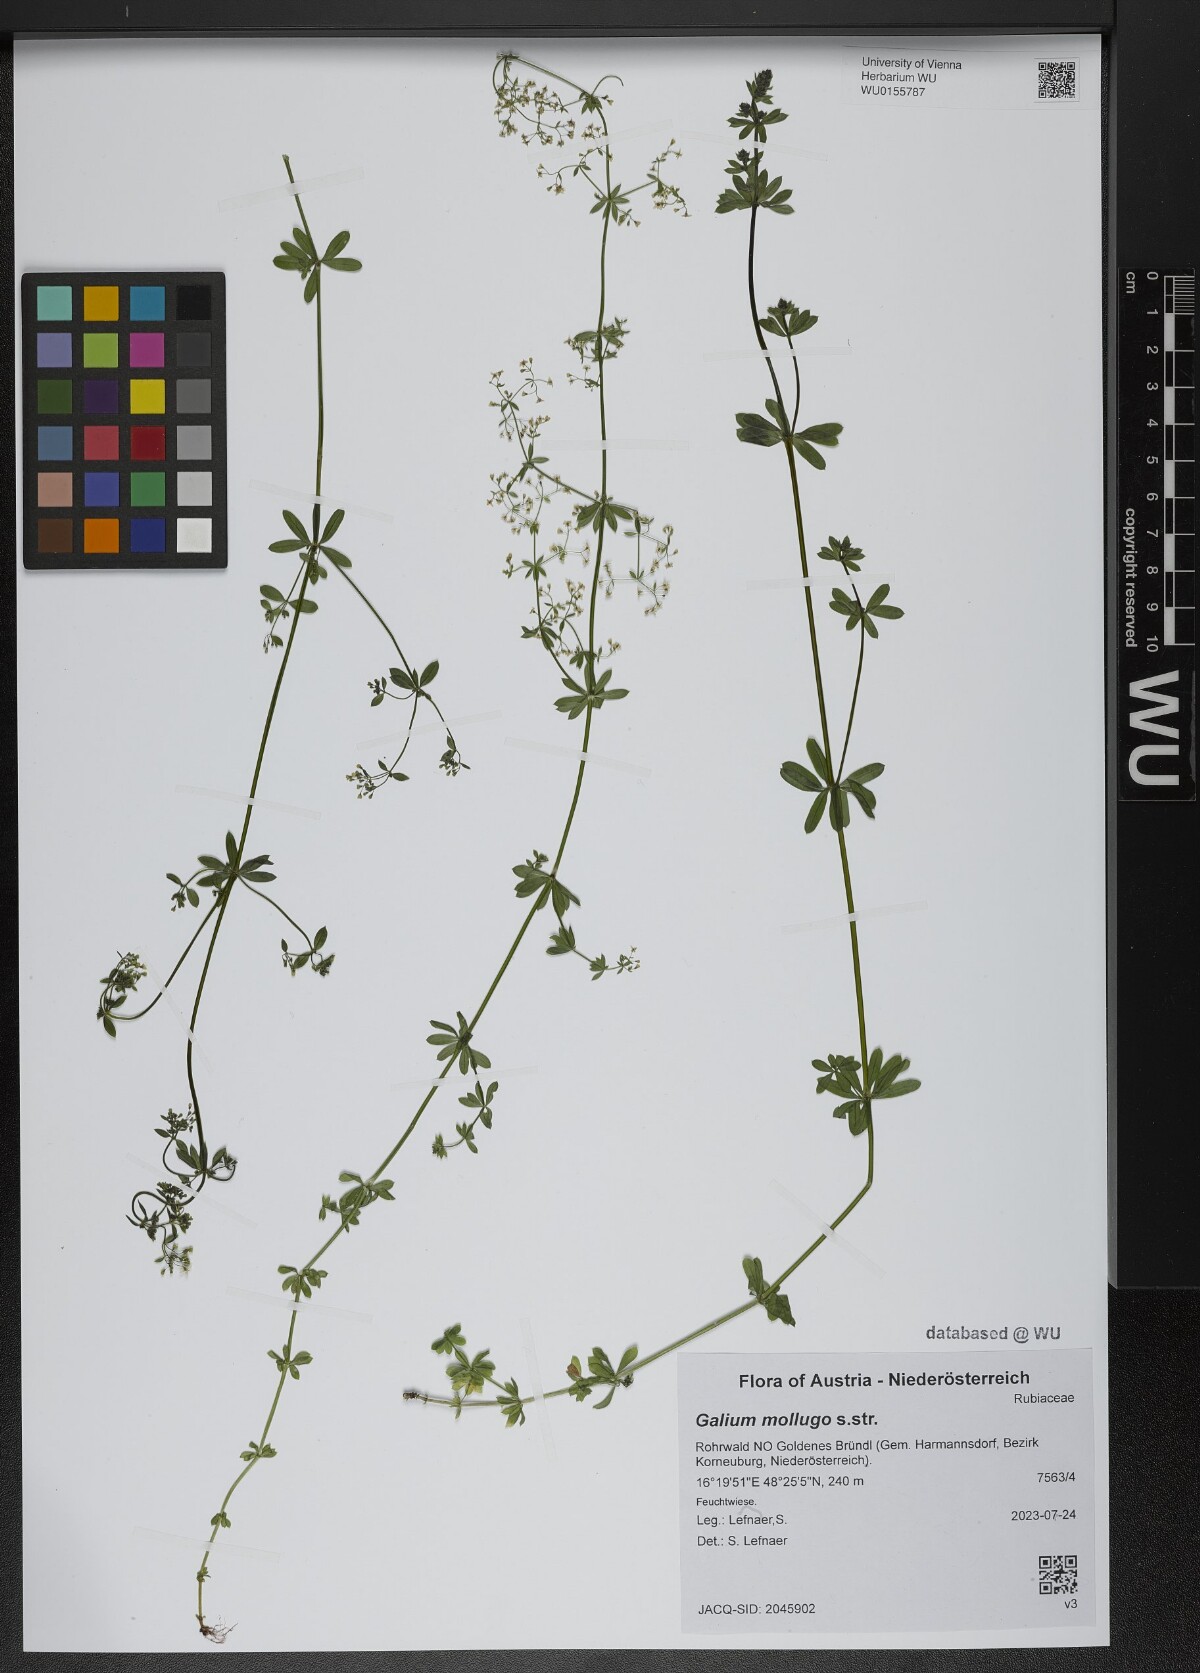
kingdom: Plantae
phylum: Tracheophyta
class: Magnoliopsida
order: Gentianales
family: Rubiaceae
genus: Galium
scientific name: Galium mollugo
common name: Hedge bedstraw
